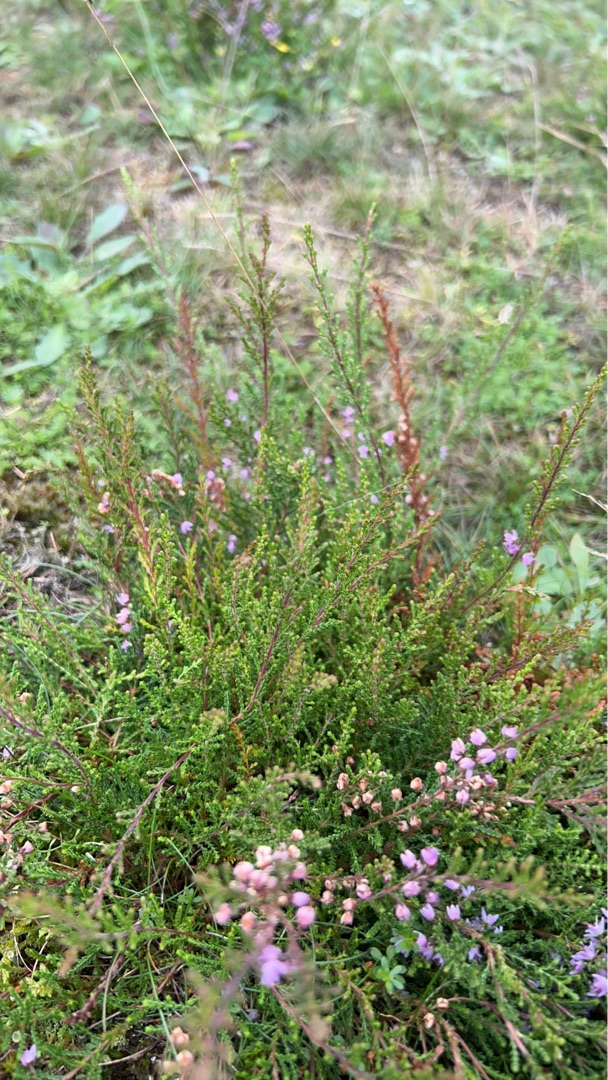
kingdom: Plantae
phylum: Tracheophyta
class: Magnoliopsida
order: Ericales
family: Ericaceae
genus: Calluna
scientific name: Calluna vulgaris
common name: Hedelyng
